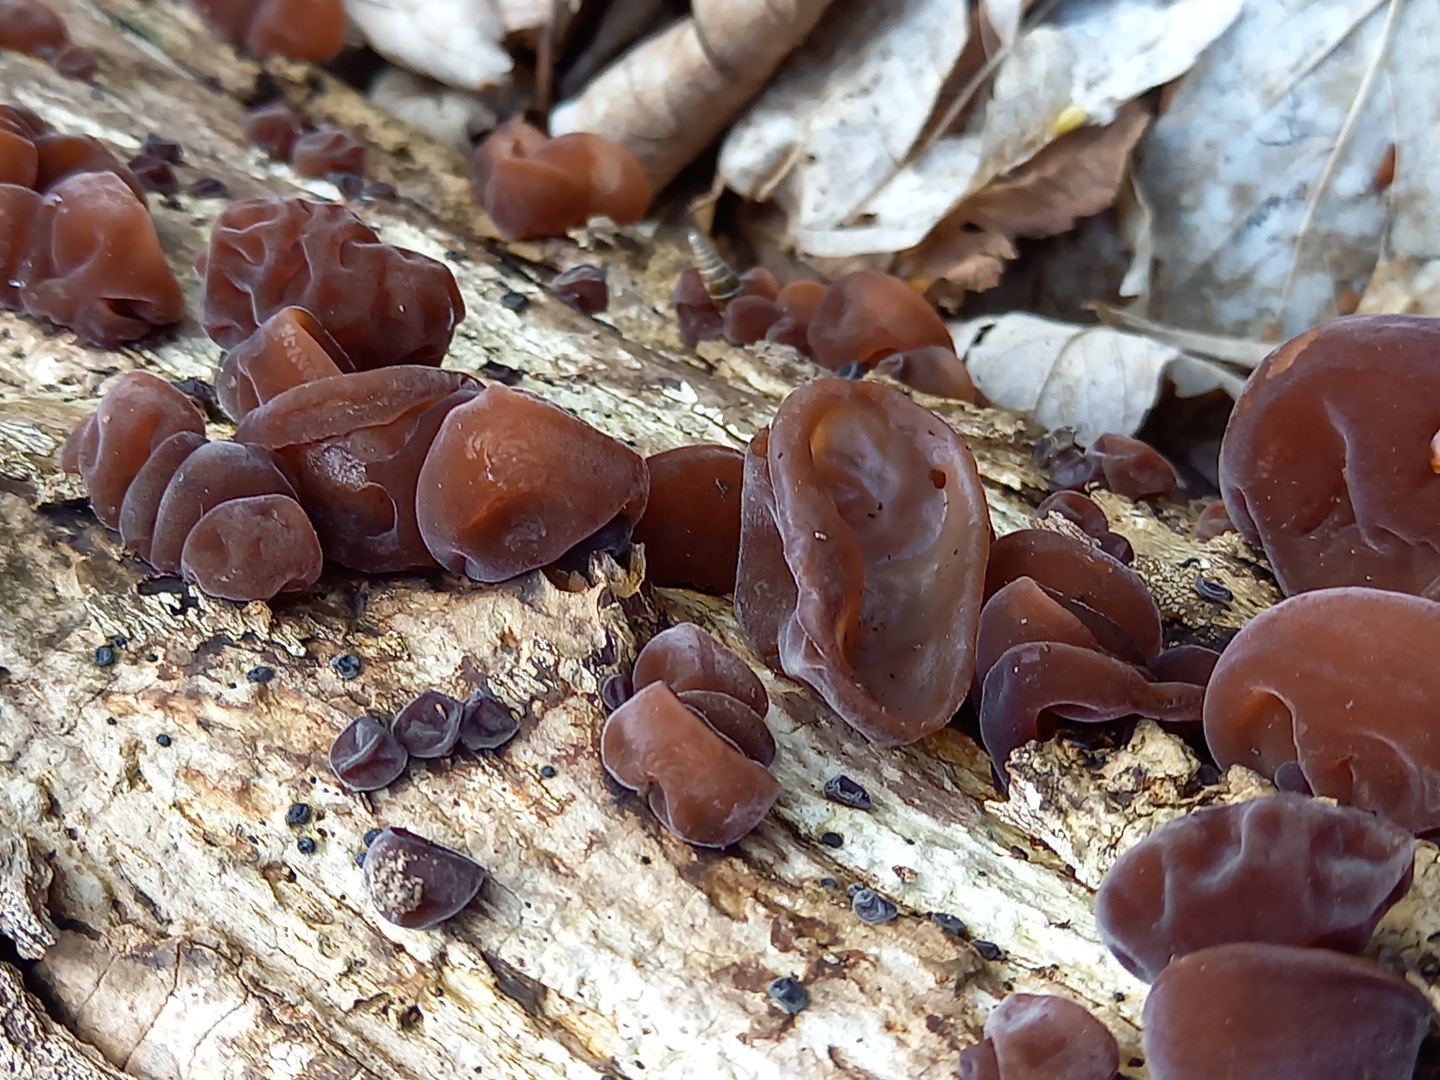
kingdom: Fungi
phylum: Basidiomycota
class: Agaricomycetes
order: Auriculariales
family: Auriculariaceae
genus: Auricularia
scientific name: Auricularia auricula-judae
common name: almindelig judasøre
